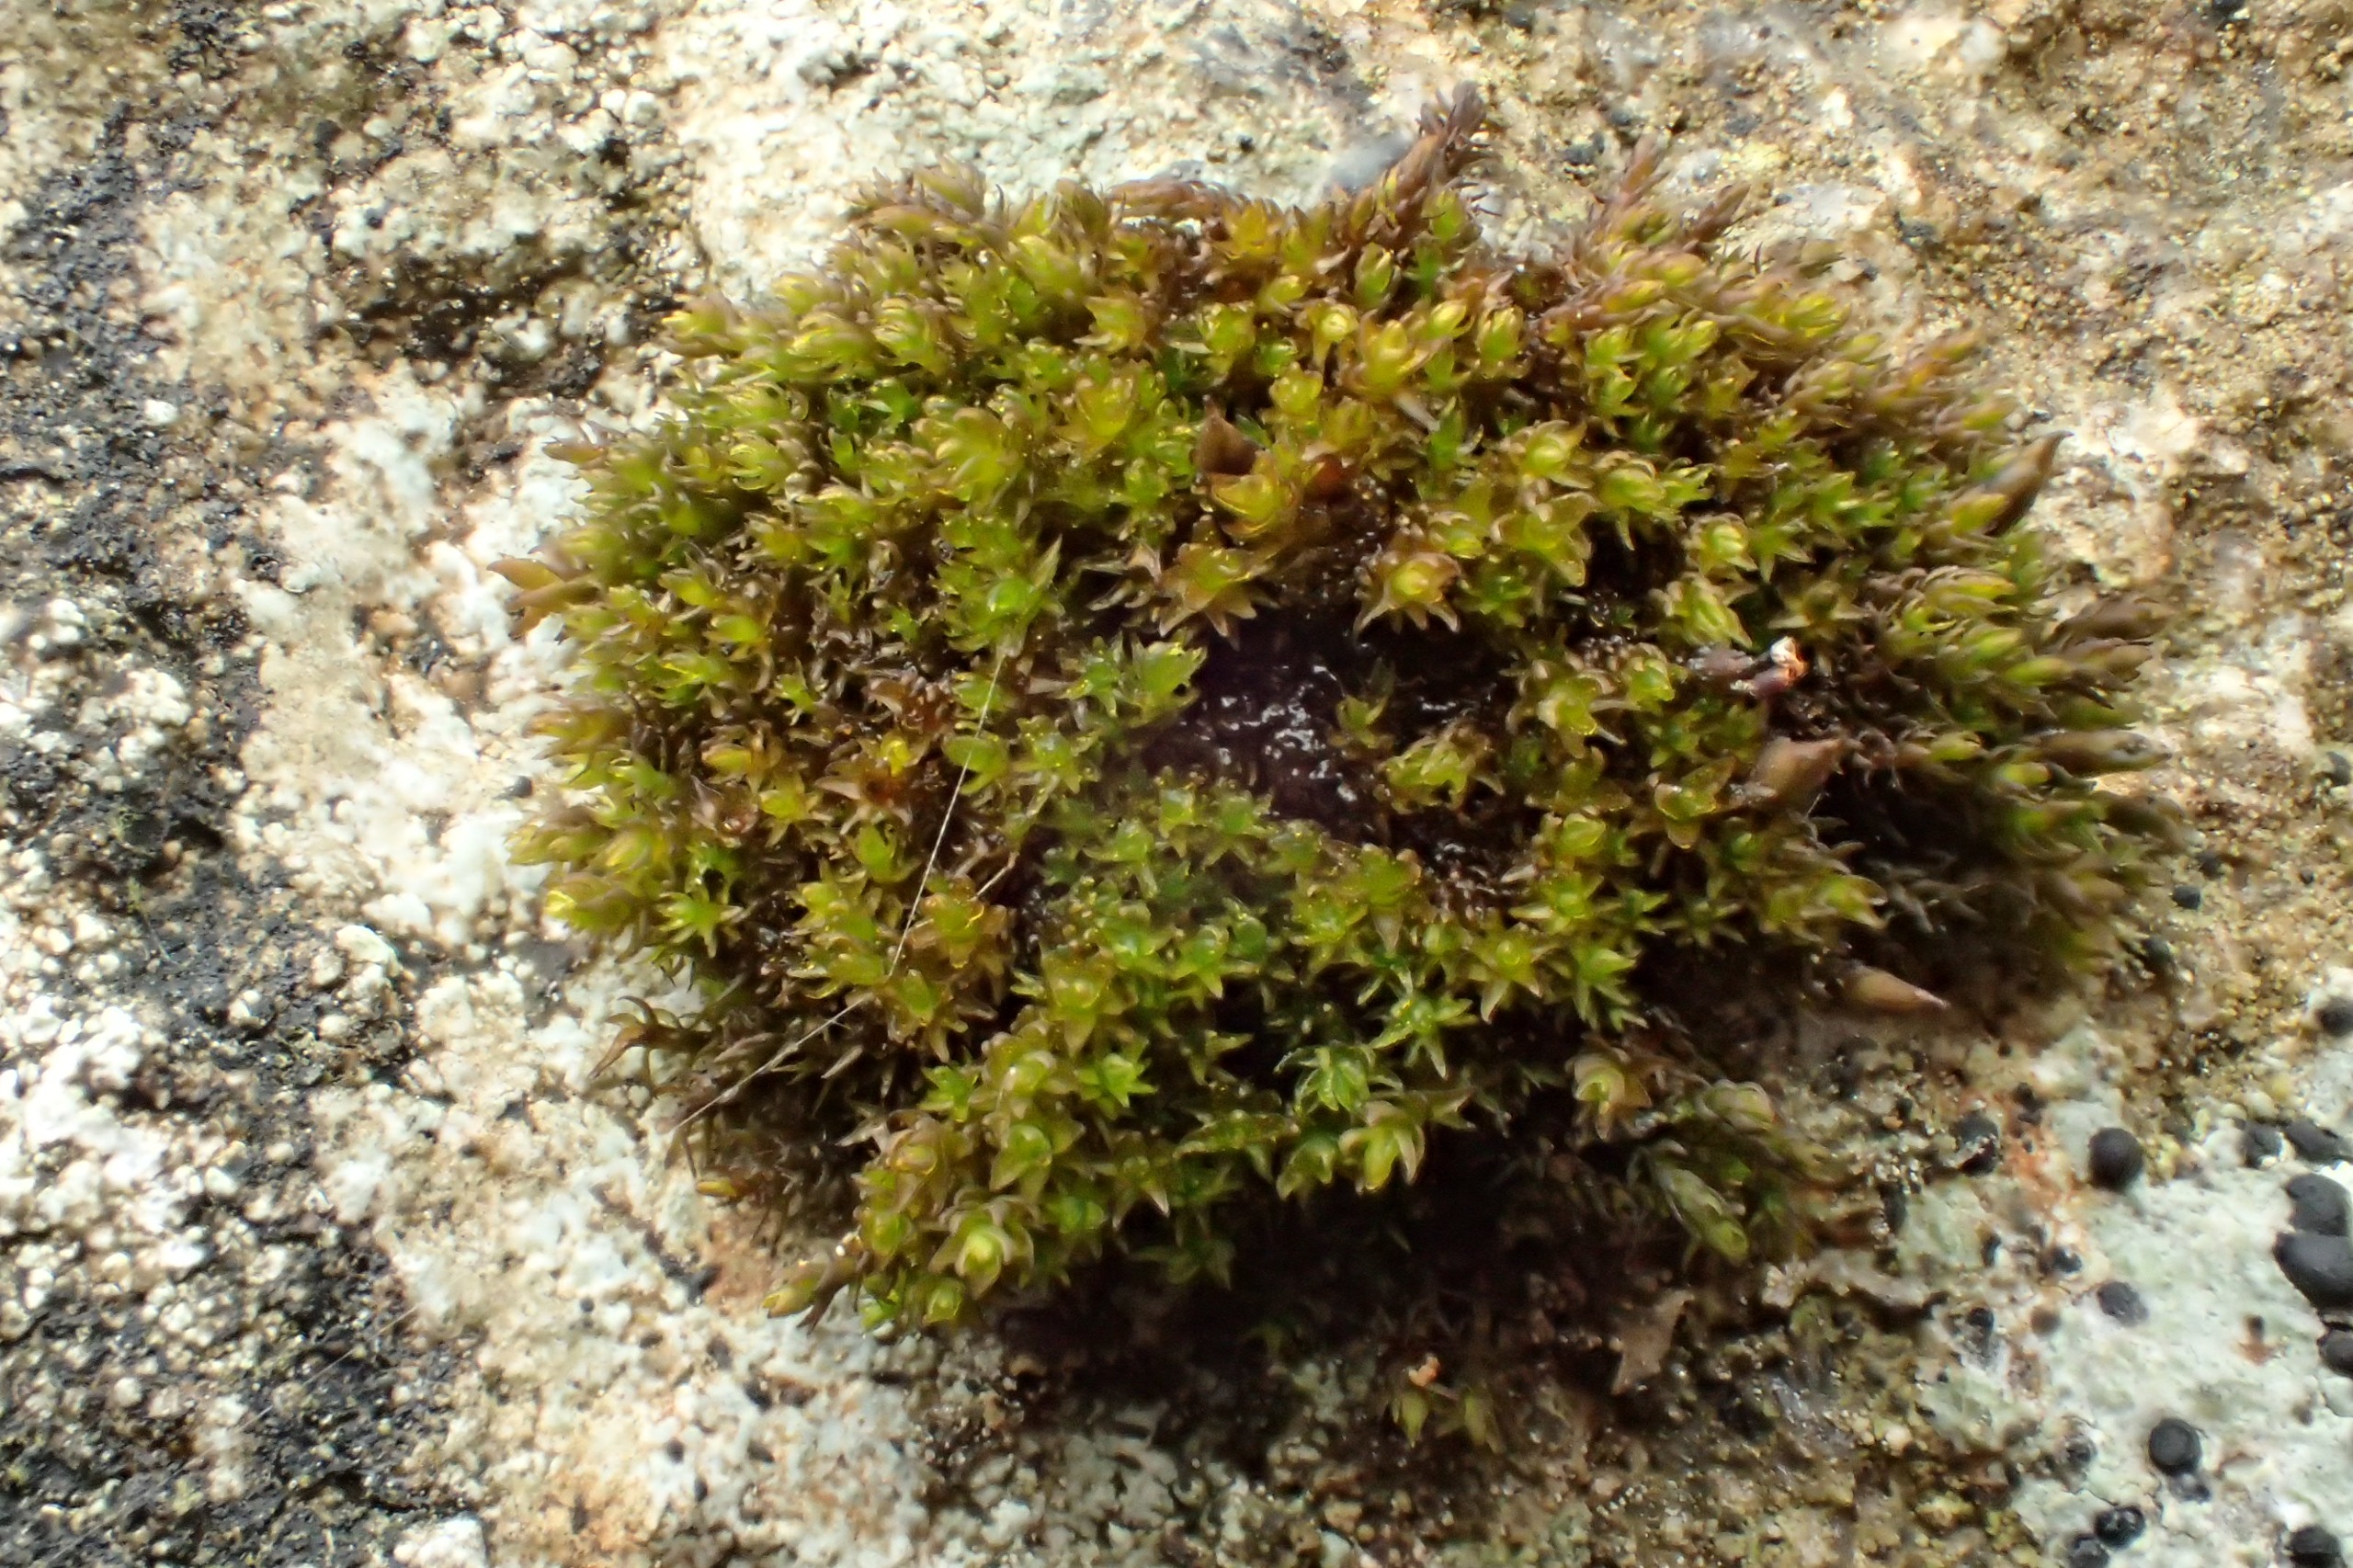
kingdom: Plantae
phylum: Bryophyta
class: Andreaeopsida
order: Andreaeales
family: Andreaeaceae
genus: Andreaea
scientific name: Andreaea rupestris
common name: Lille sortmos
